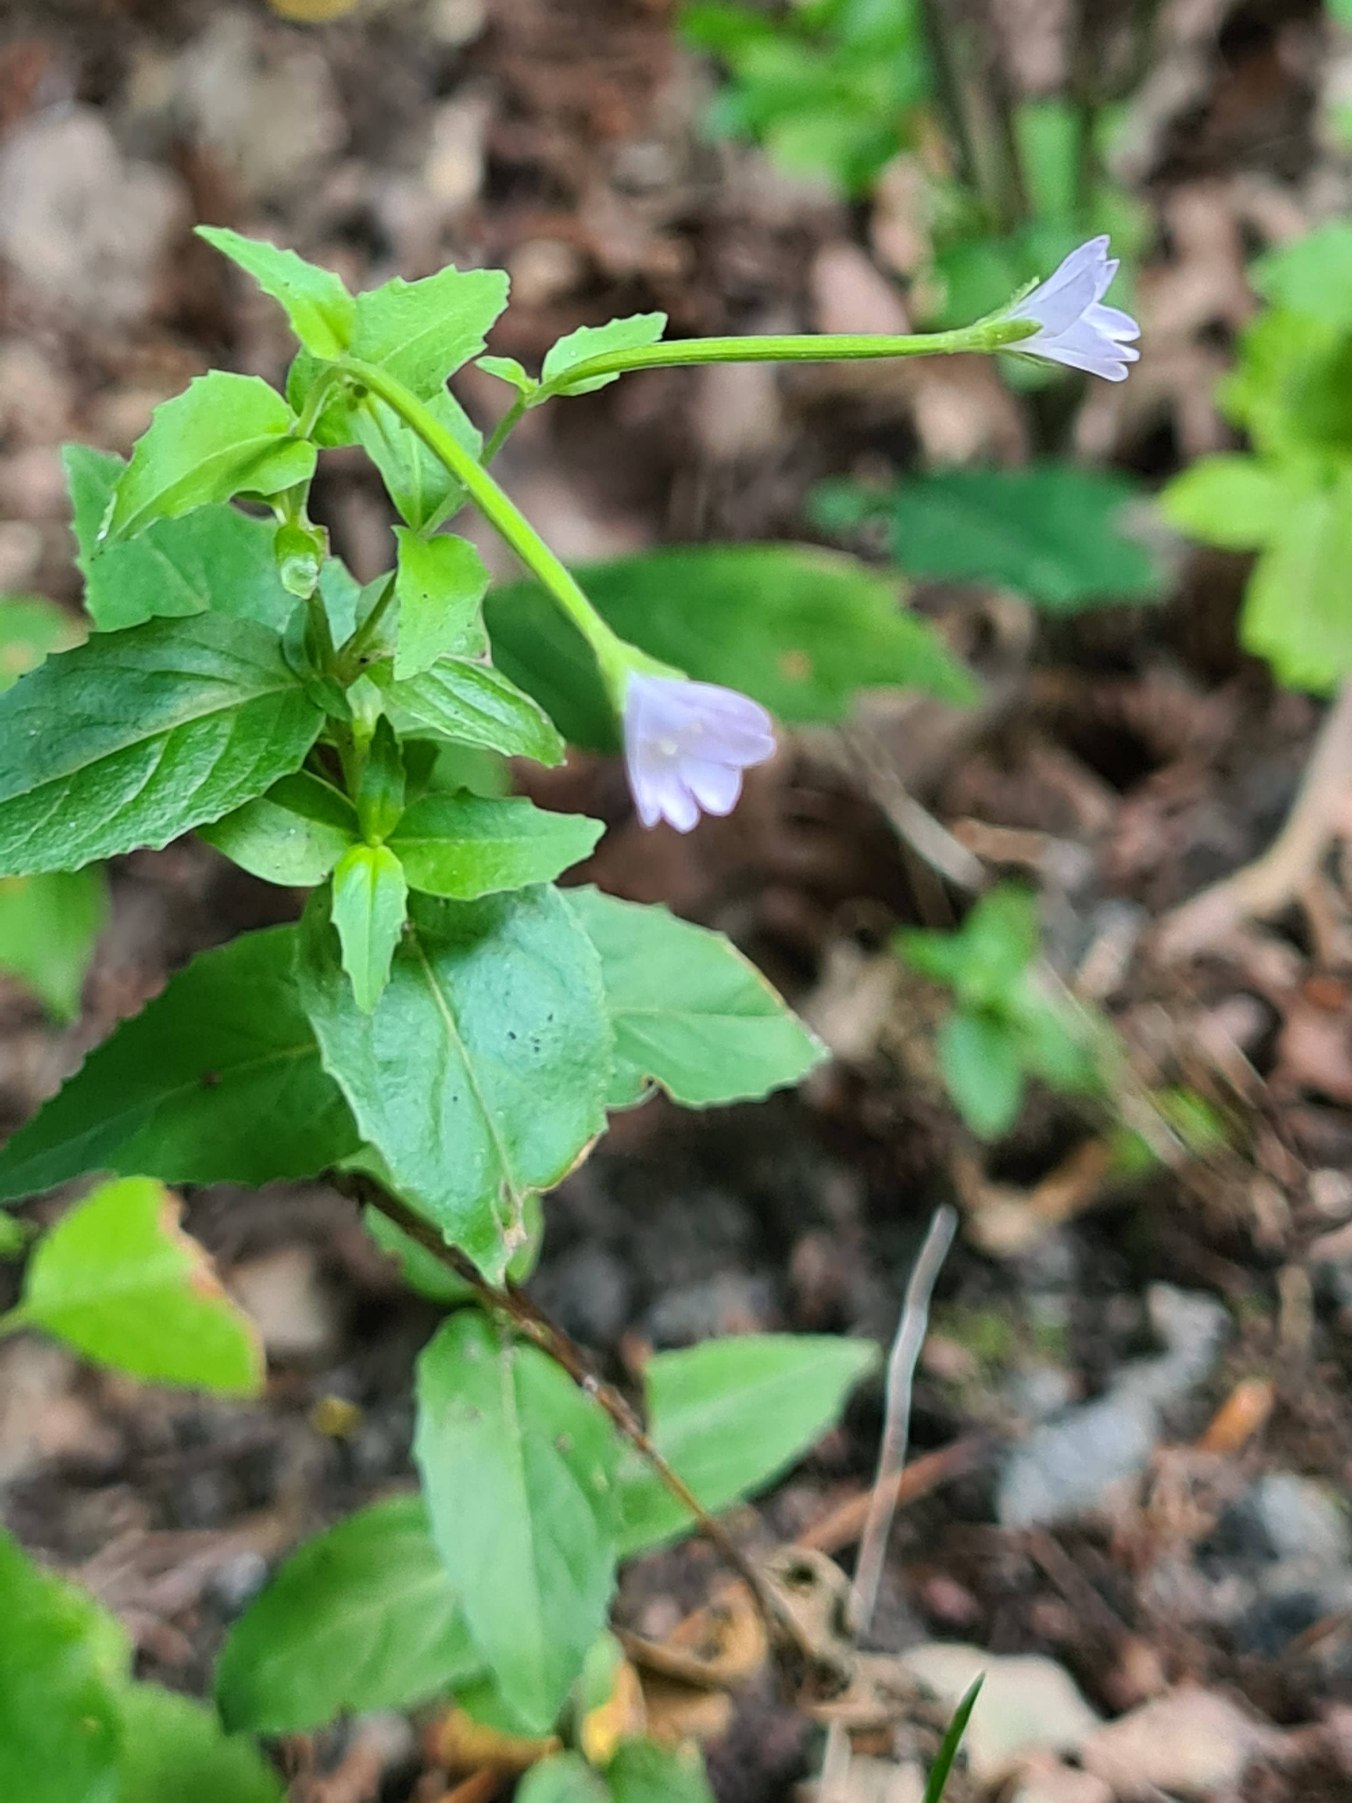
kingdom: Plantae
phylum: Tracheophyta
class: Magnoliopsida
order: Myrtales
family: Onagraceae
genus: Epilobium
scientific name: Epilobium
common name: Dueurtslægten
